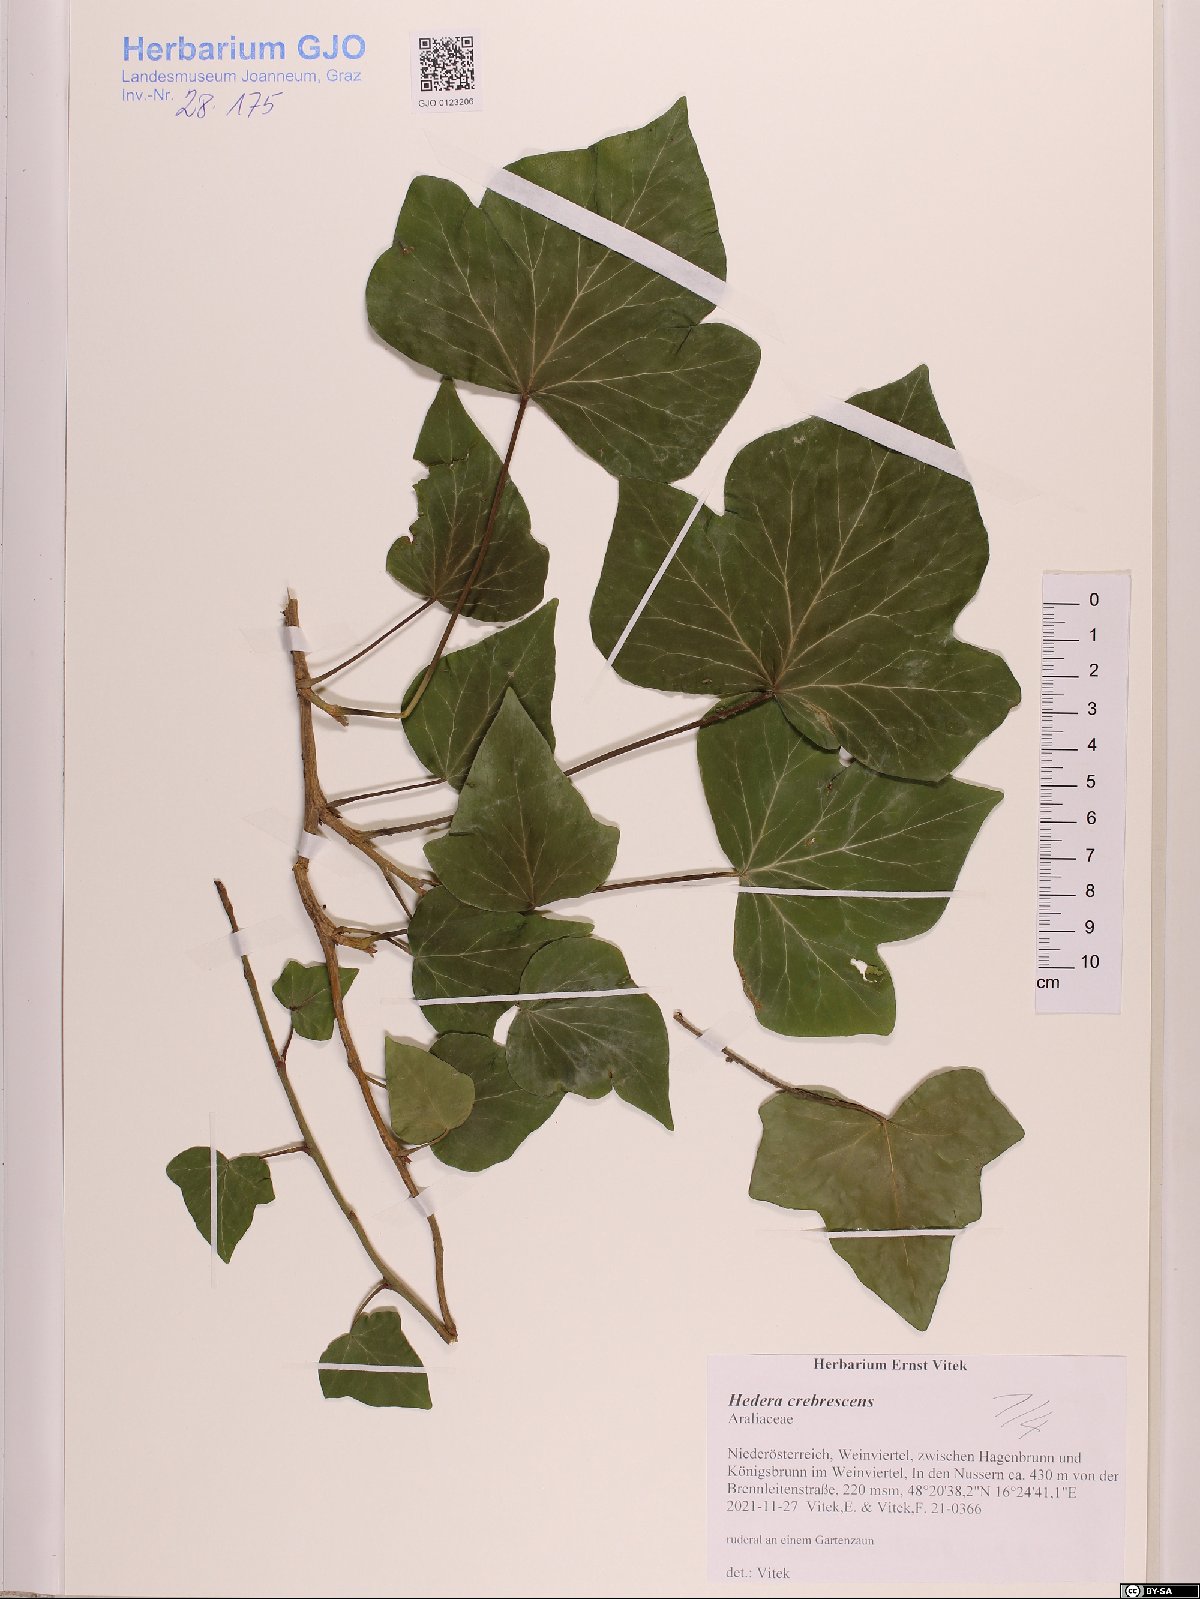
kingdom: Plantae
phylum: Tracheophyta
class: Magnoliopsida
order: Apiales
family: Araliaceae
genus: Hedera
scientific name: Hedera crebrescens
